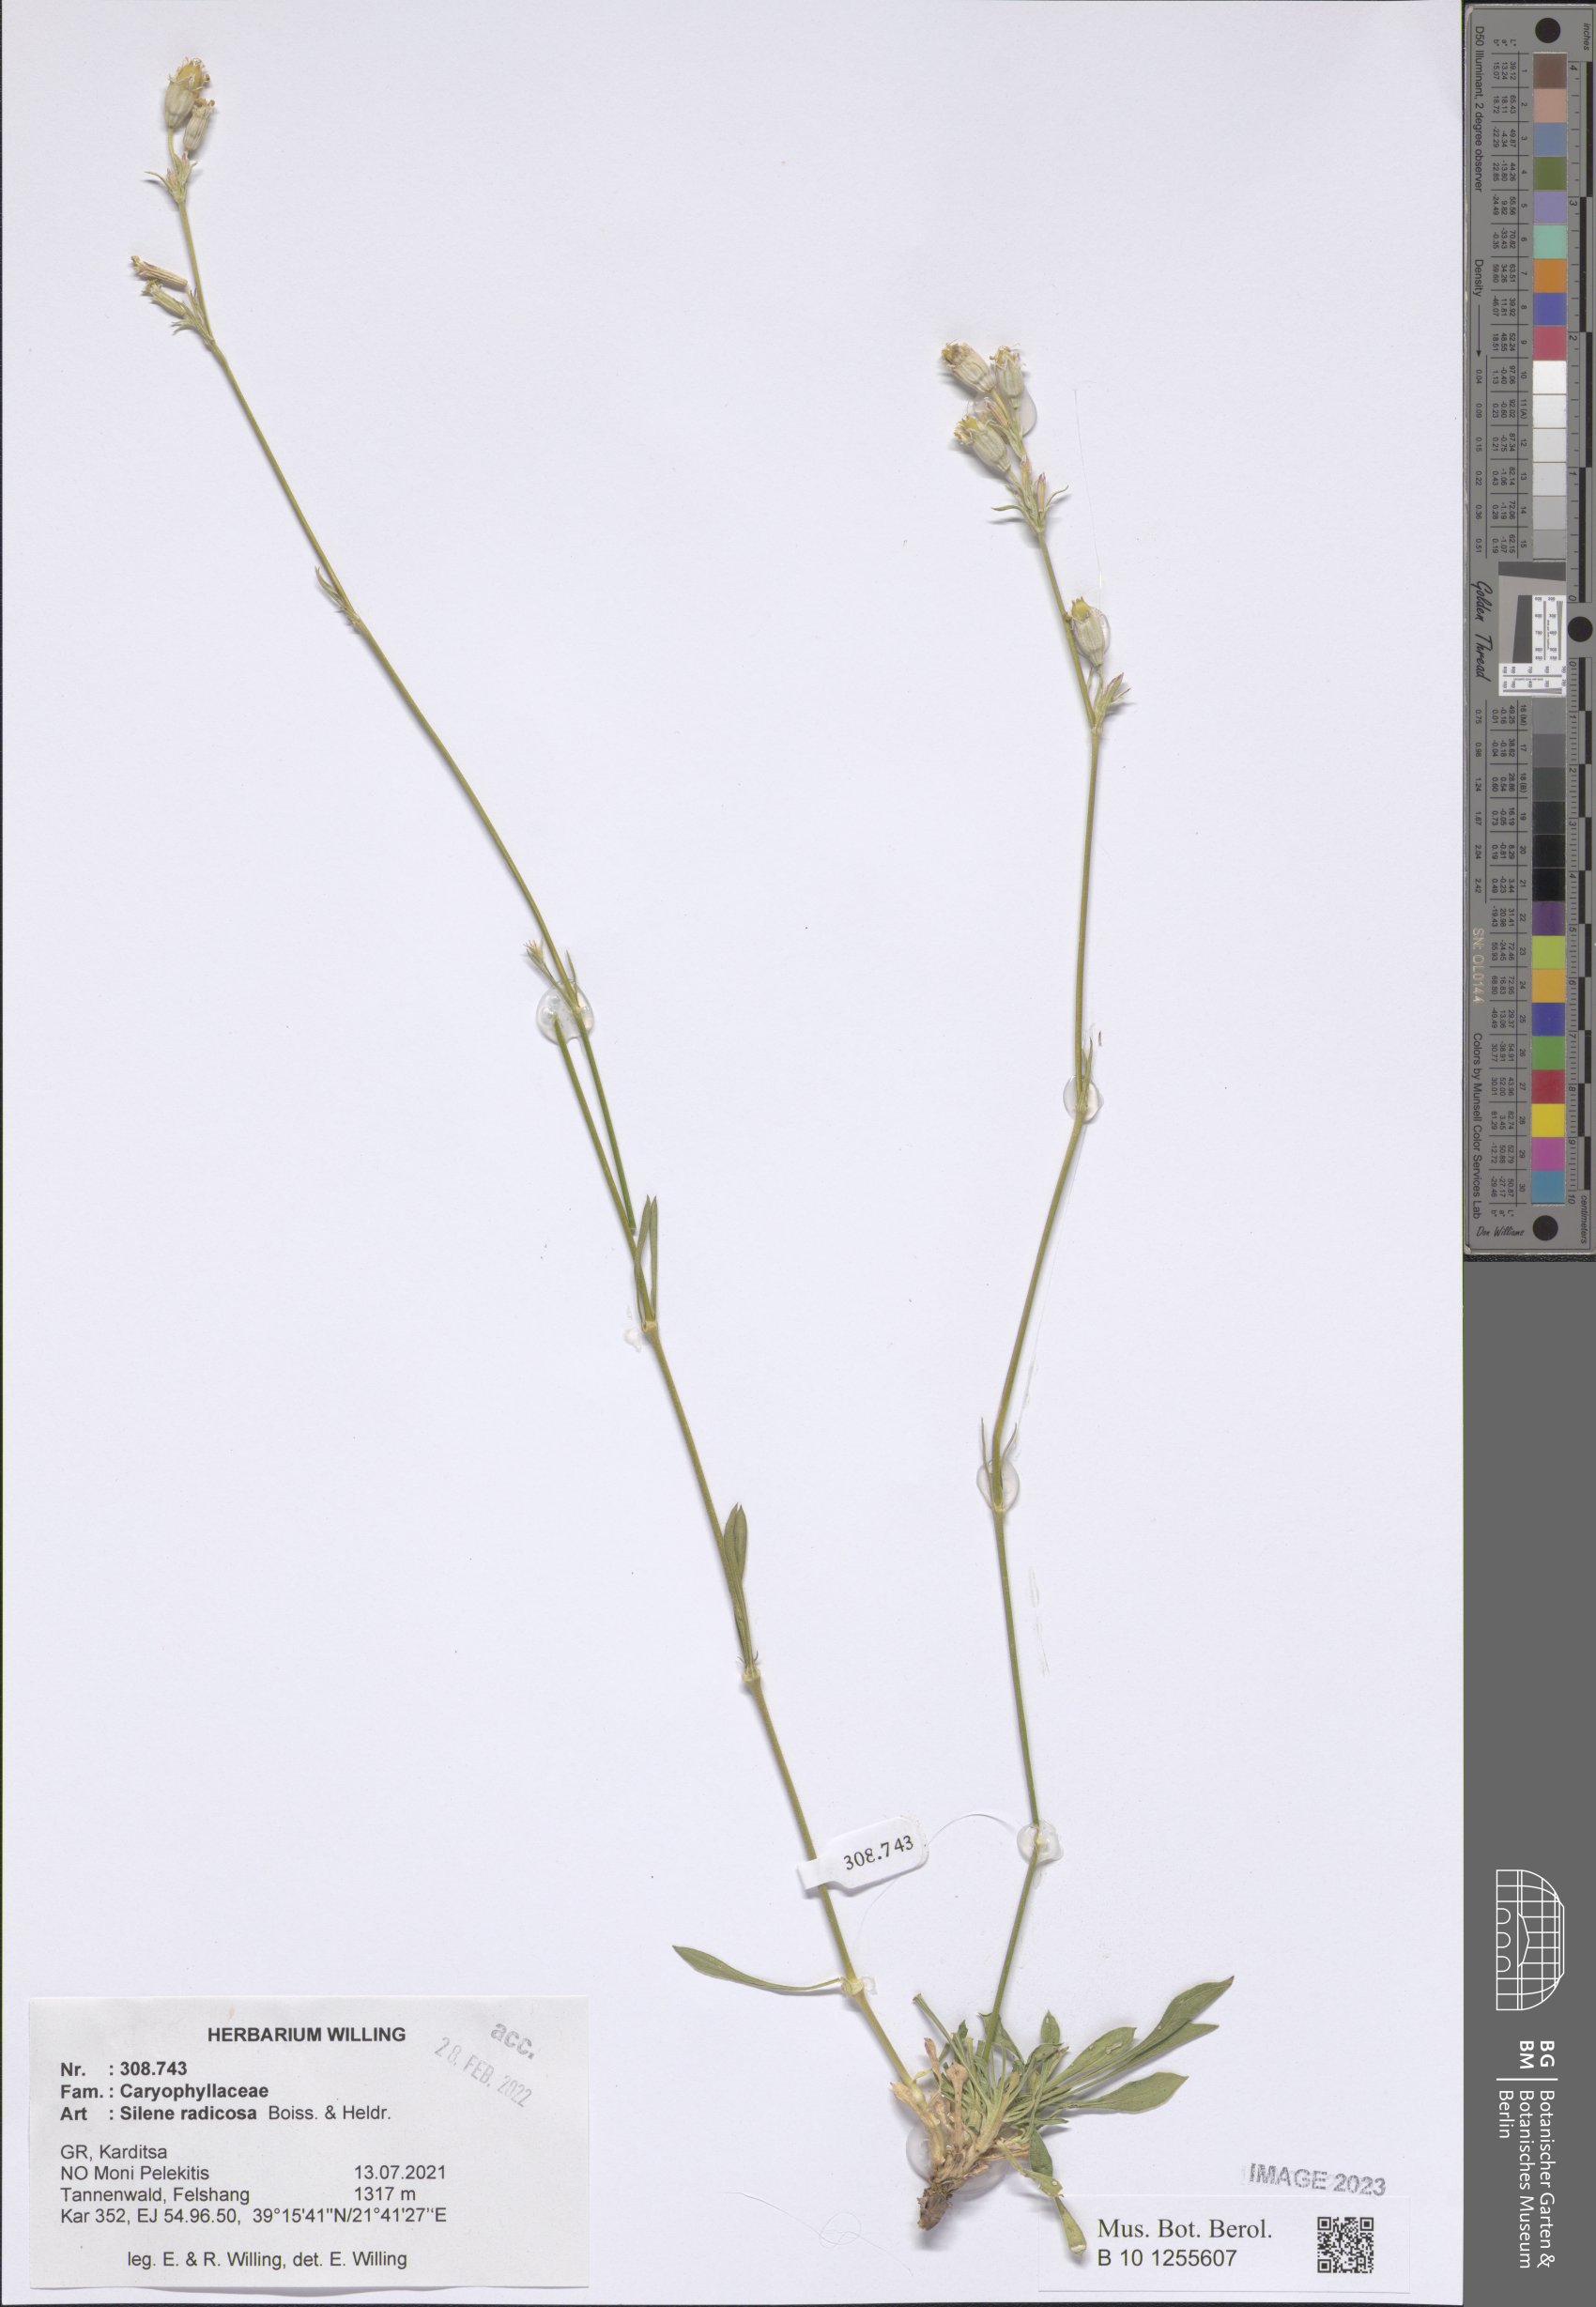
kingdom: Plantae
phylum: Tracheophyta
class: Magnoliopsida
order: Caryophyllales
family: Caryophyllaceae
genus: Silene
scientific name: Silene radicosa
